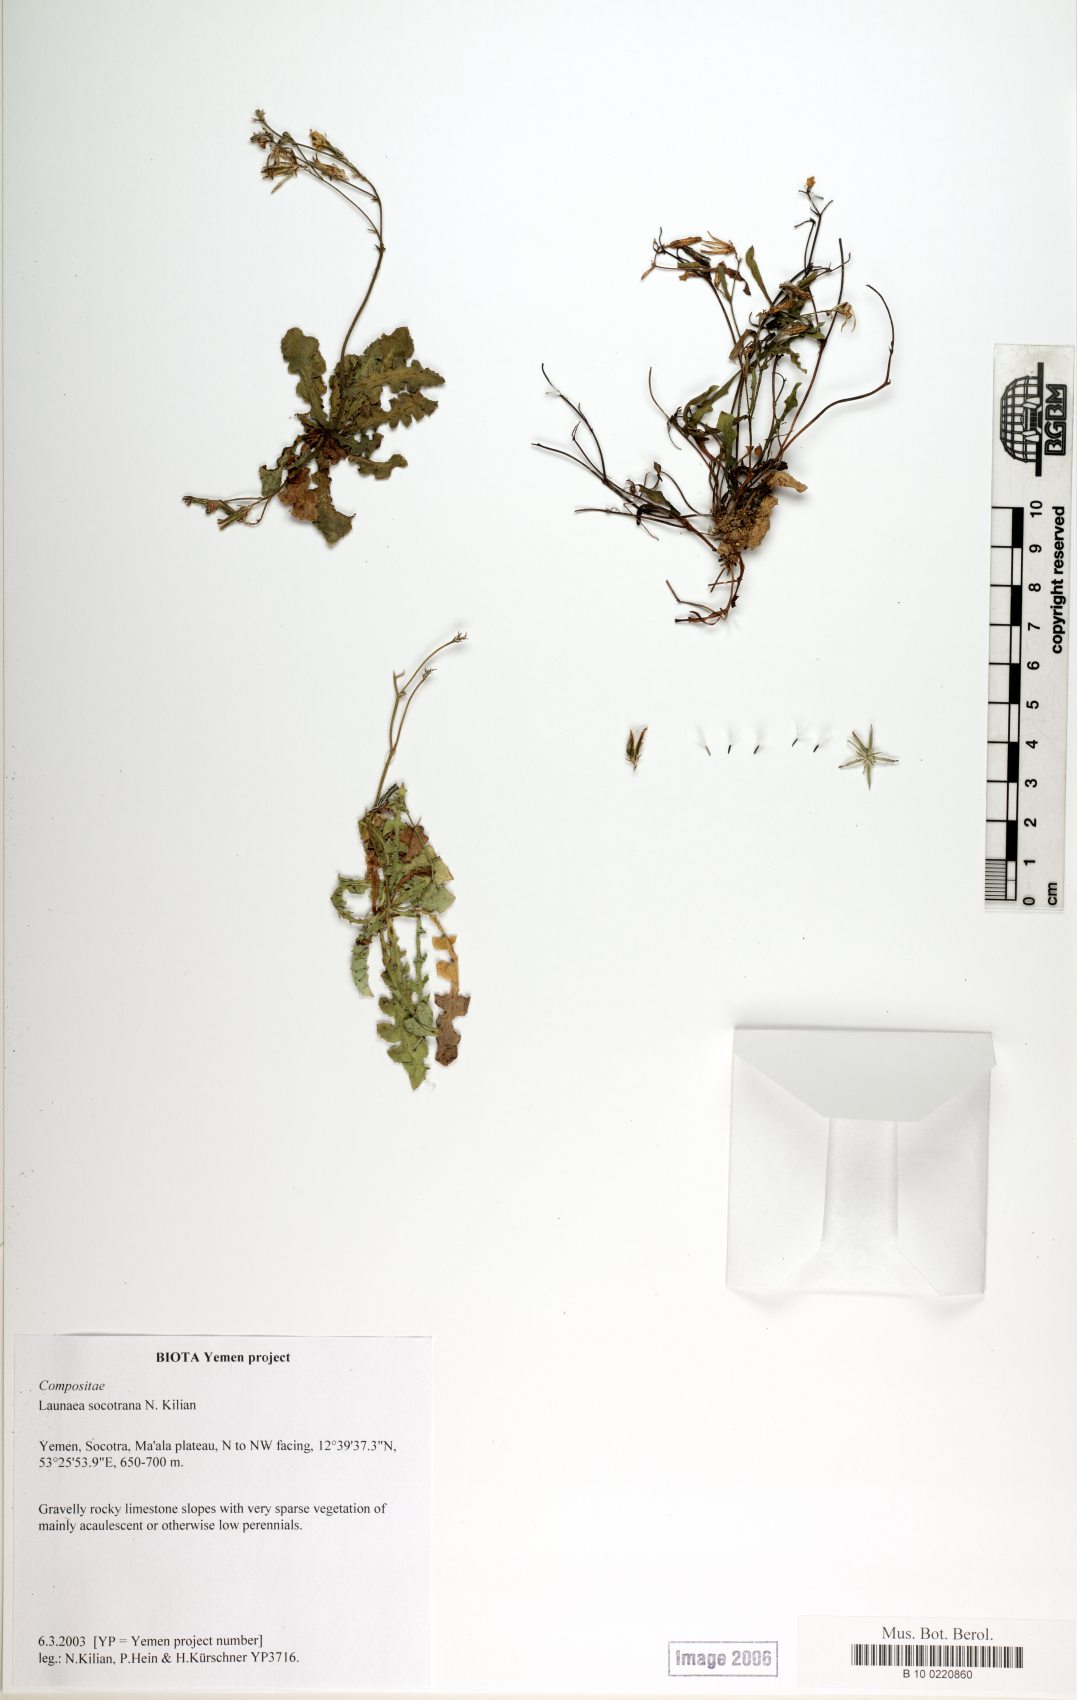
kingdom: Plantae
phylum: Tracheophyta
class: Magnoliopsida
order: Asterales
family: Asteraceae
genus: Launaea
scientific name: Launaea socotrana
